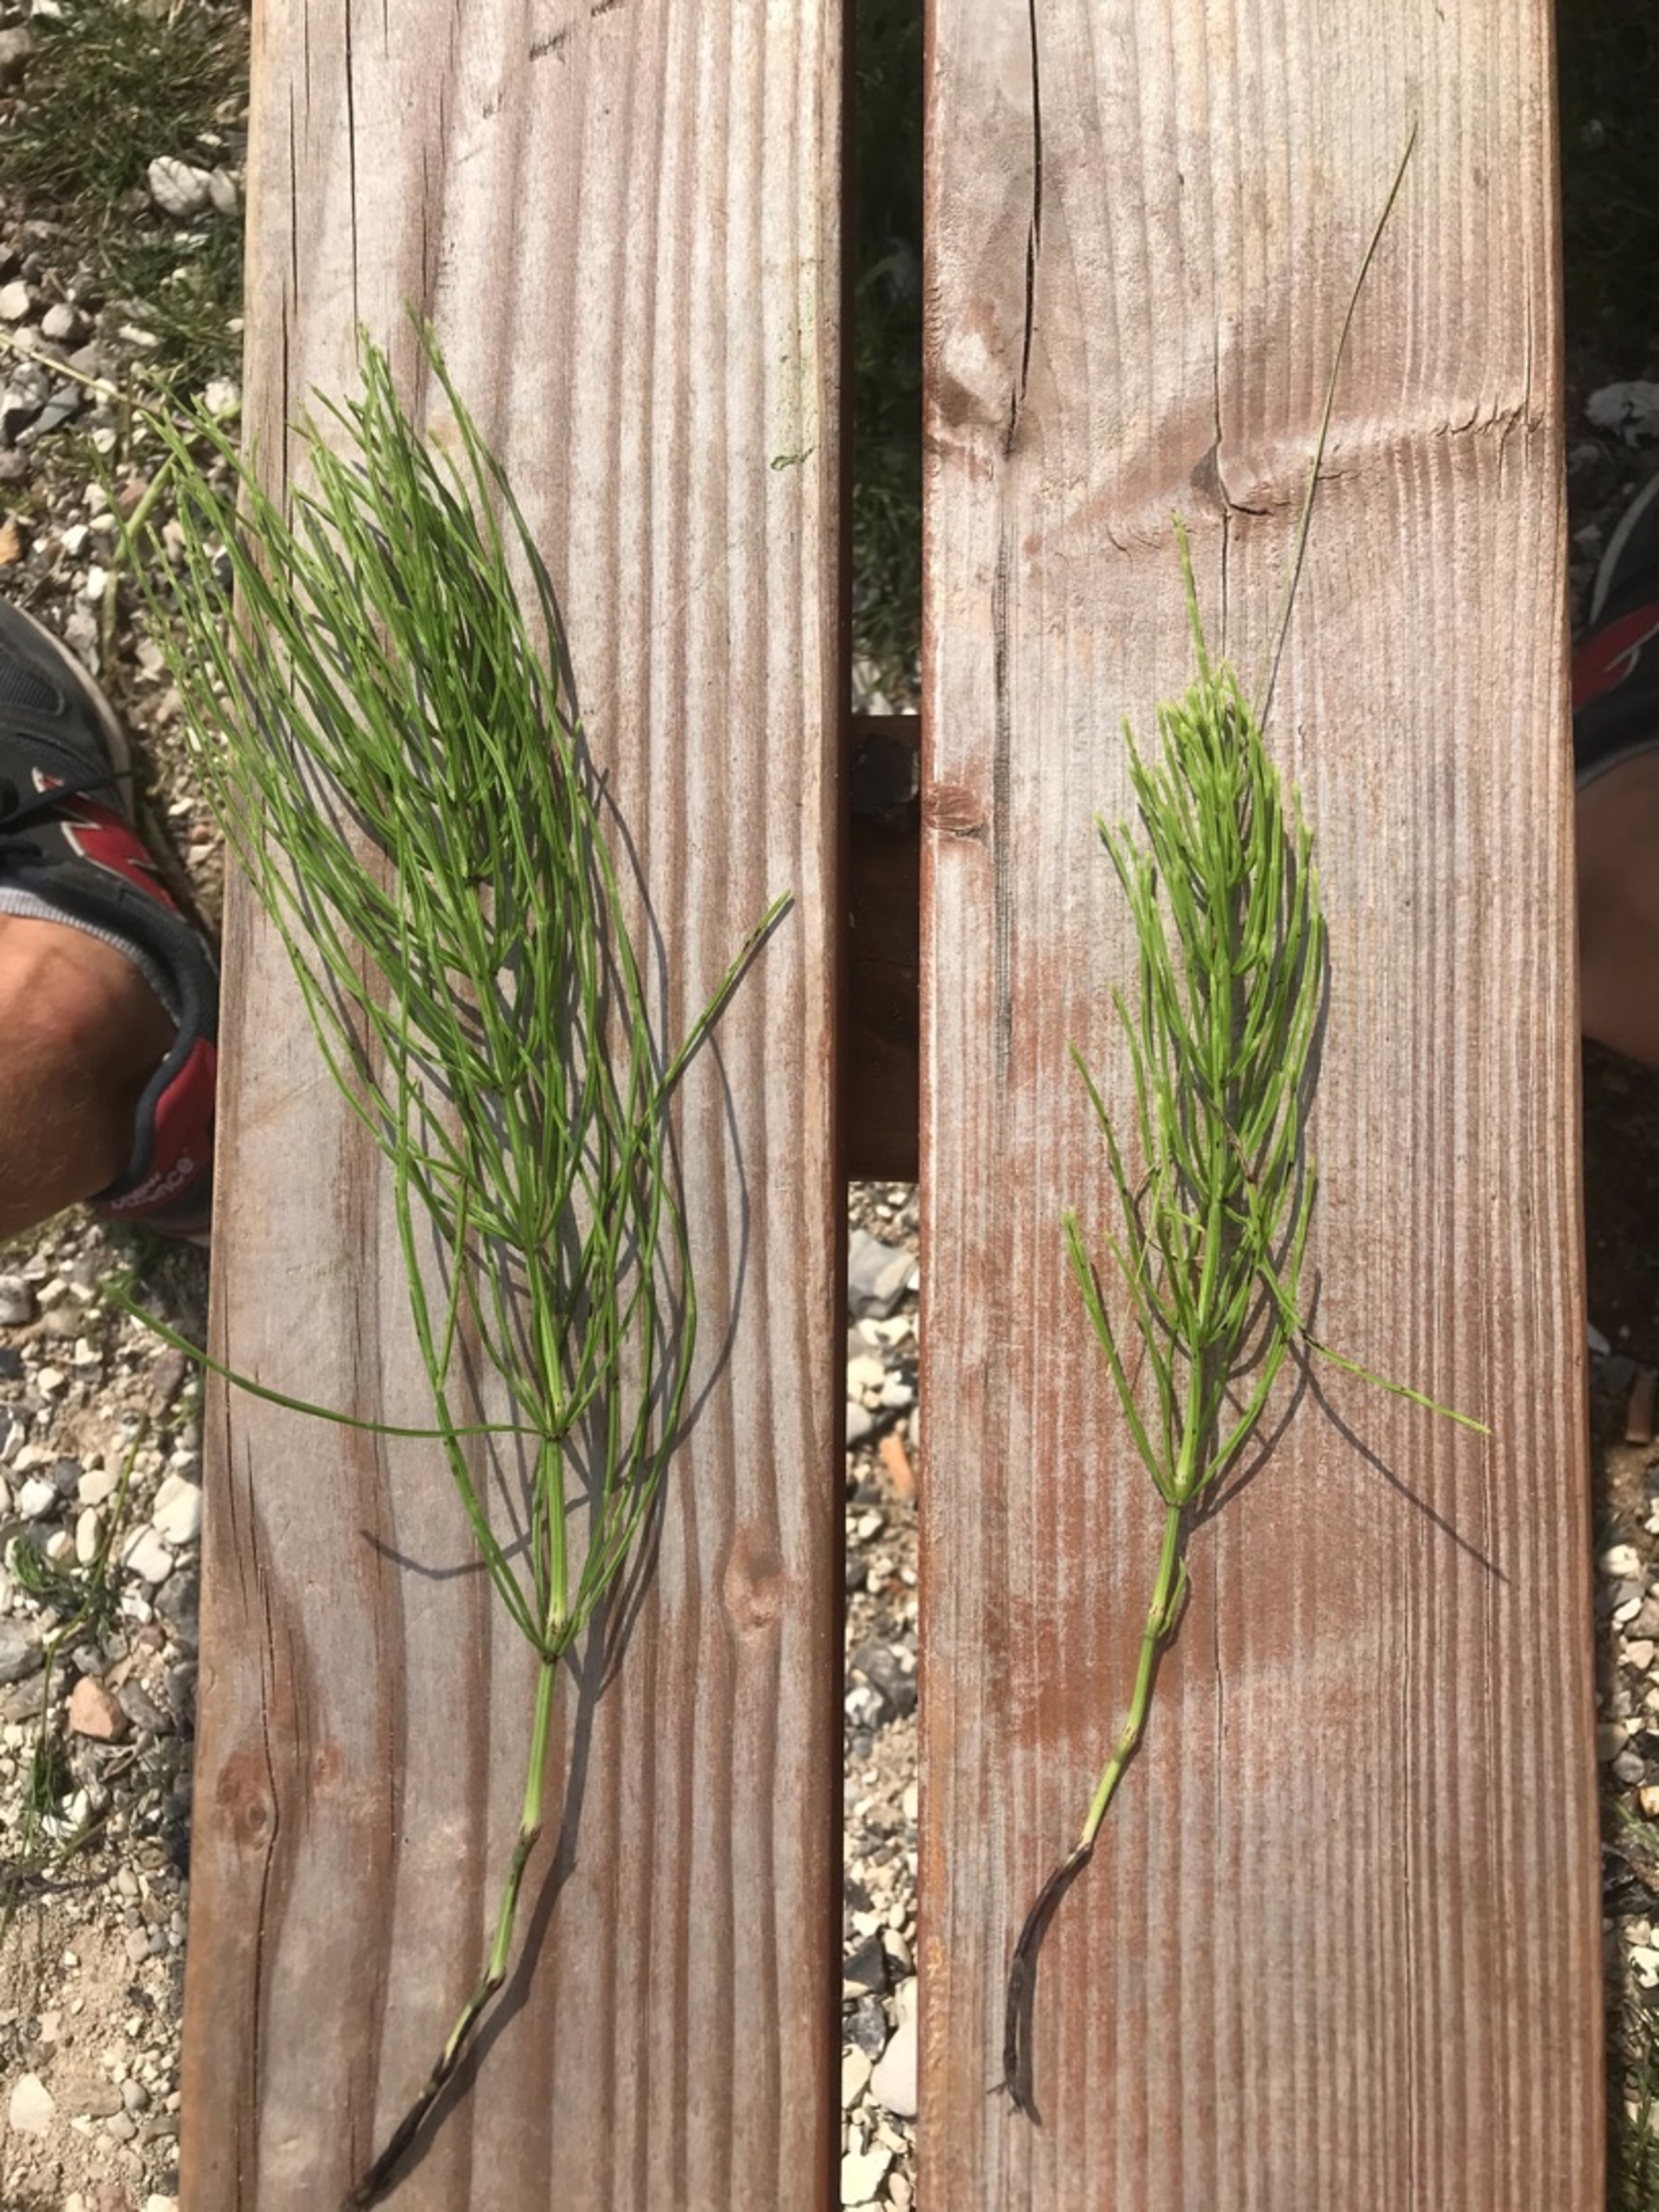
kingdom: Plantae
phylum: Tracheophyta
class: Polypodiopsida
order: Equisetales
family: Equisetaceae
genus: Equisetum
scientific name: Equisetum arvense
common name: Ager-padderok
